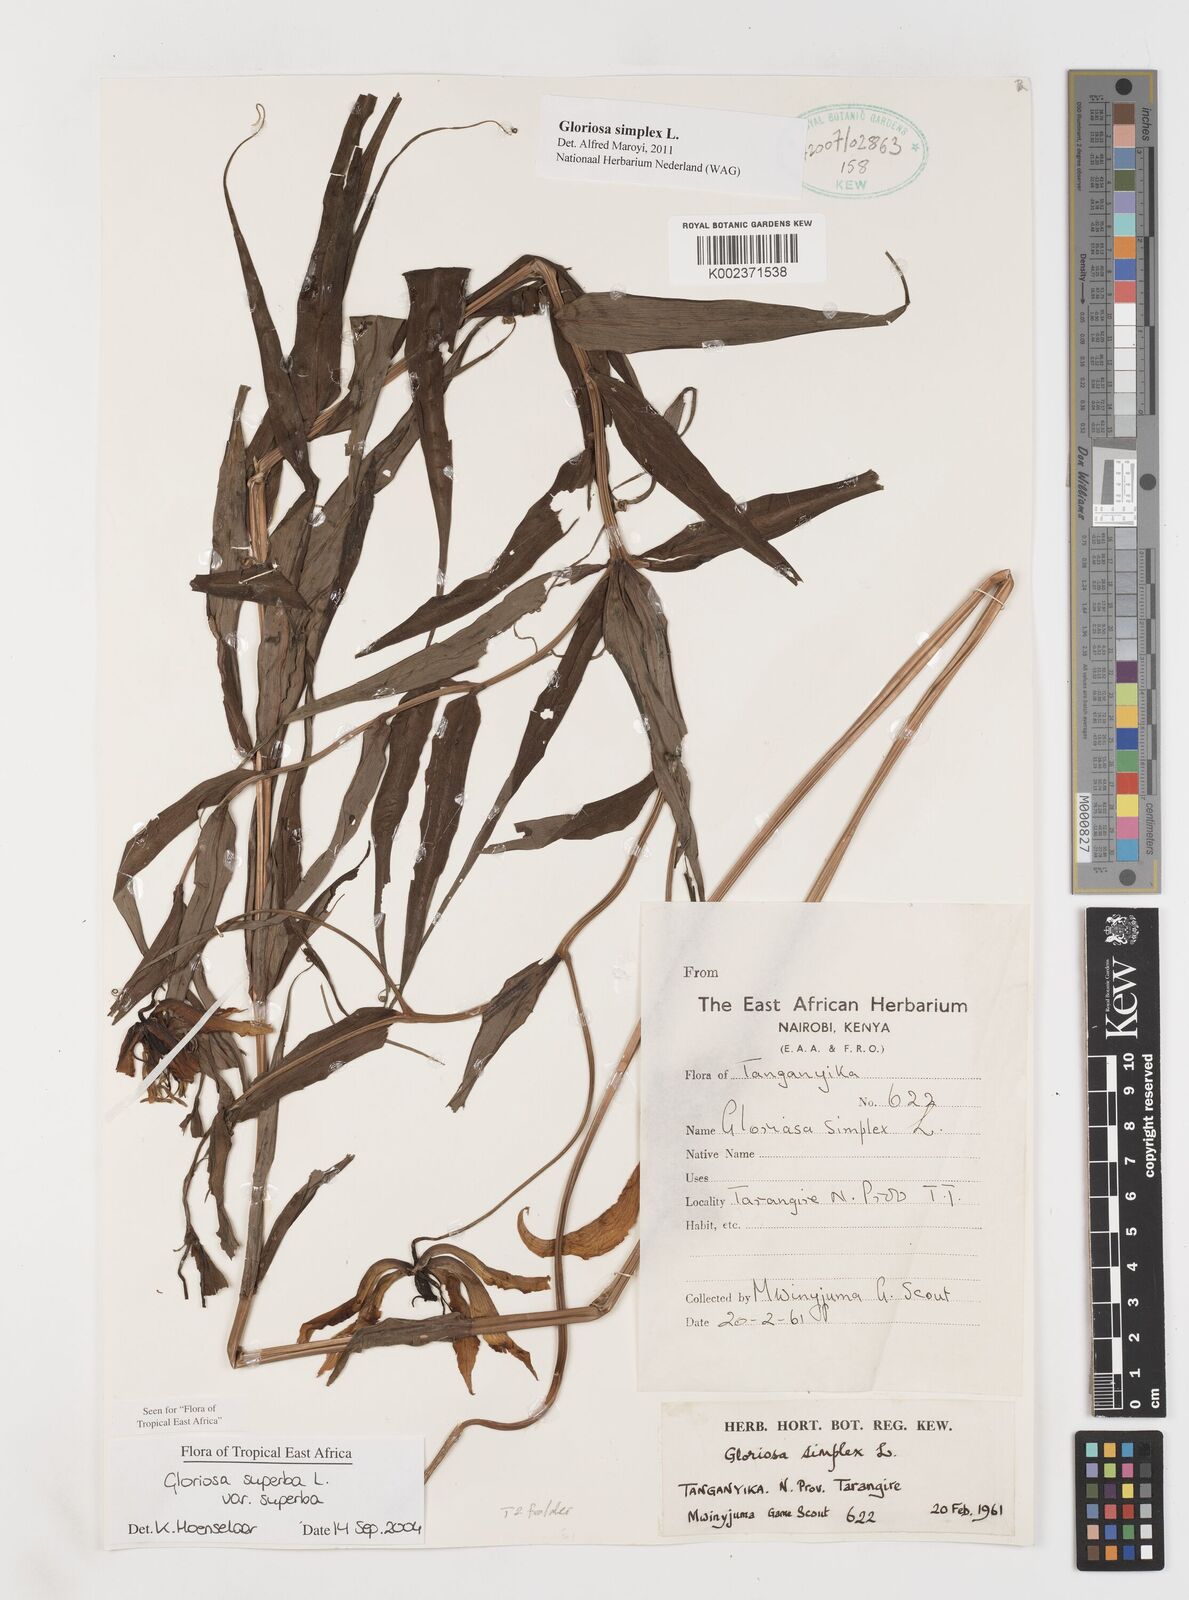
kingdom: Plantae
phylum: Tracheophyta
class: Liliopsida
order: Liliales
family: Colchicaceae
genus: Gloriosa
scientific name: Gloriosa simplex
